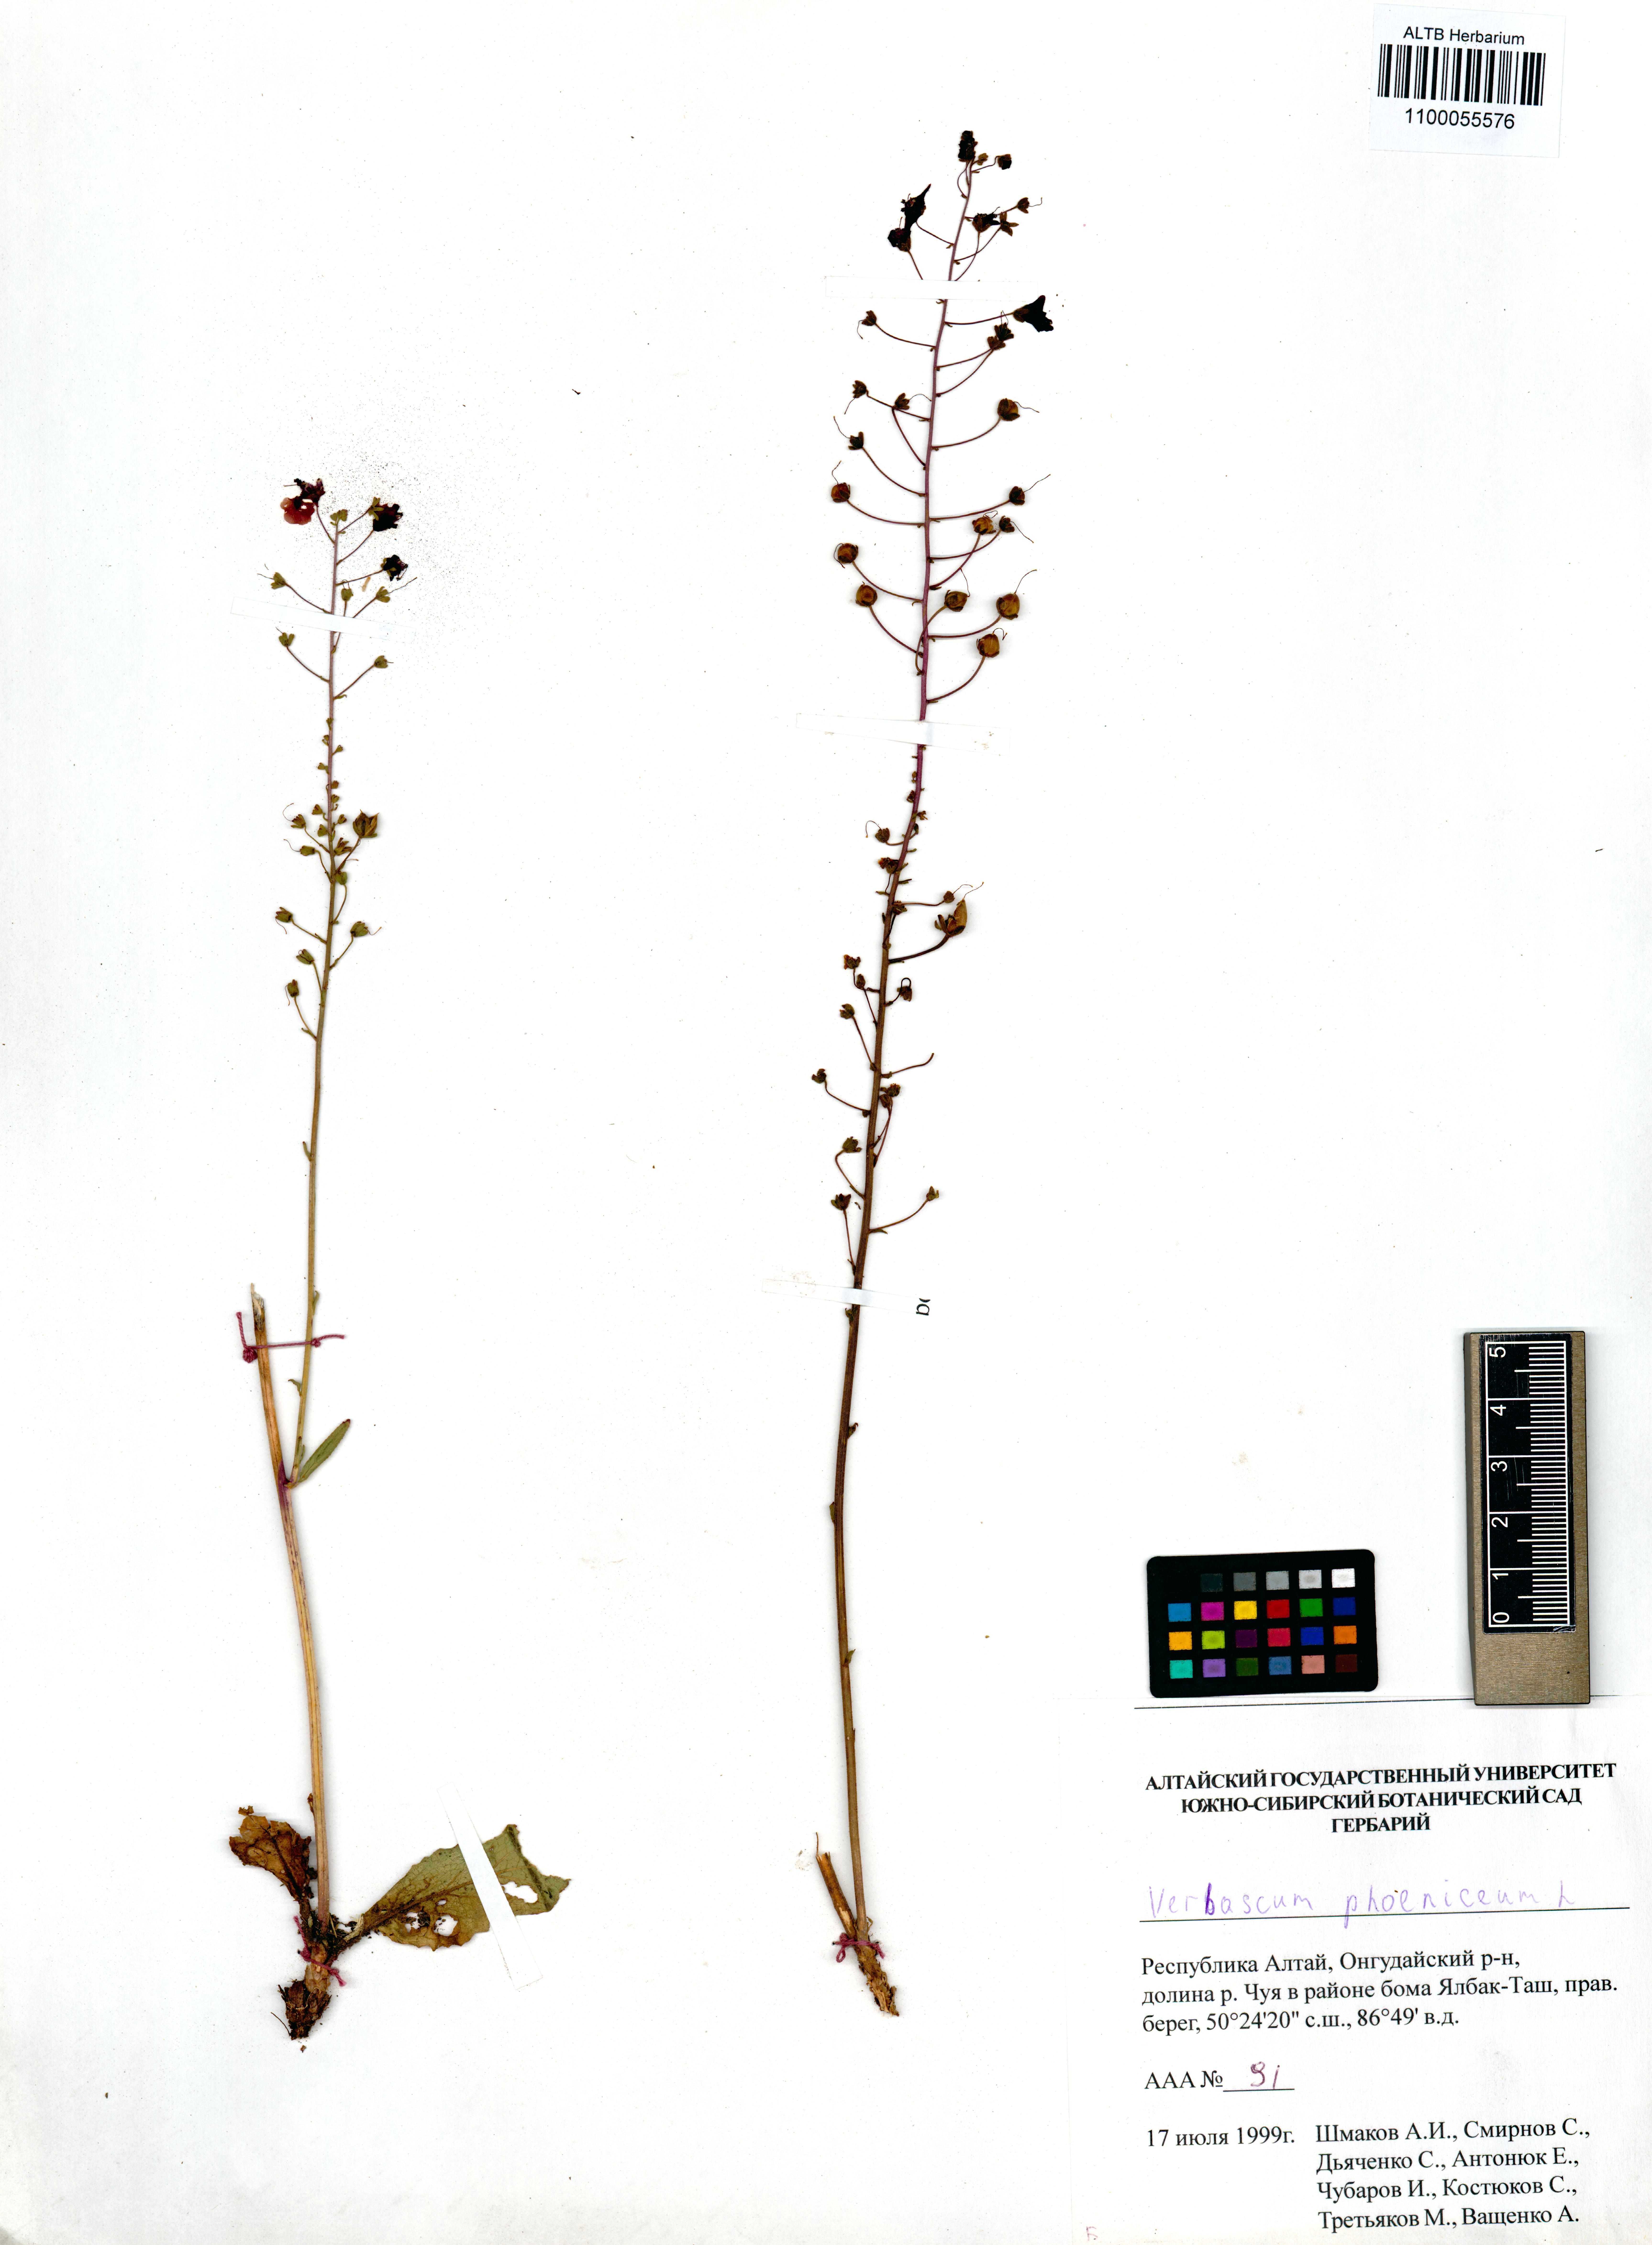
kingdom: Plantae
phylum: Tracheophyta
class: Magnoliopsida
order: Lamiales
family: Scrophulariaceae
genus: Verbascum
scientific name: Verbascum phoeniceum
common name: Purple mullein
